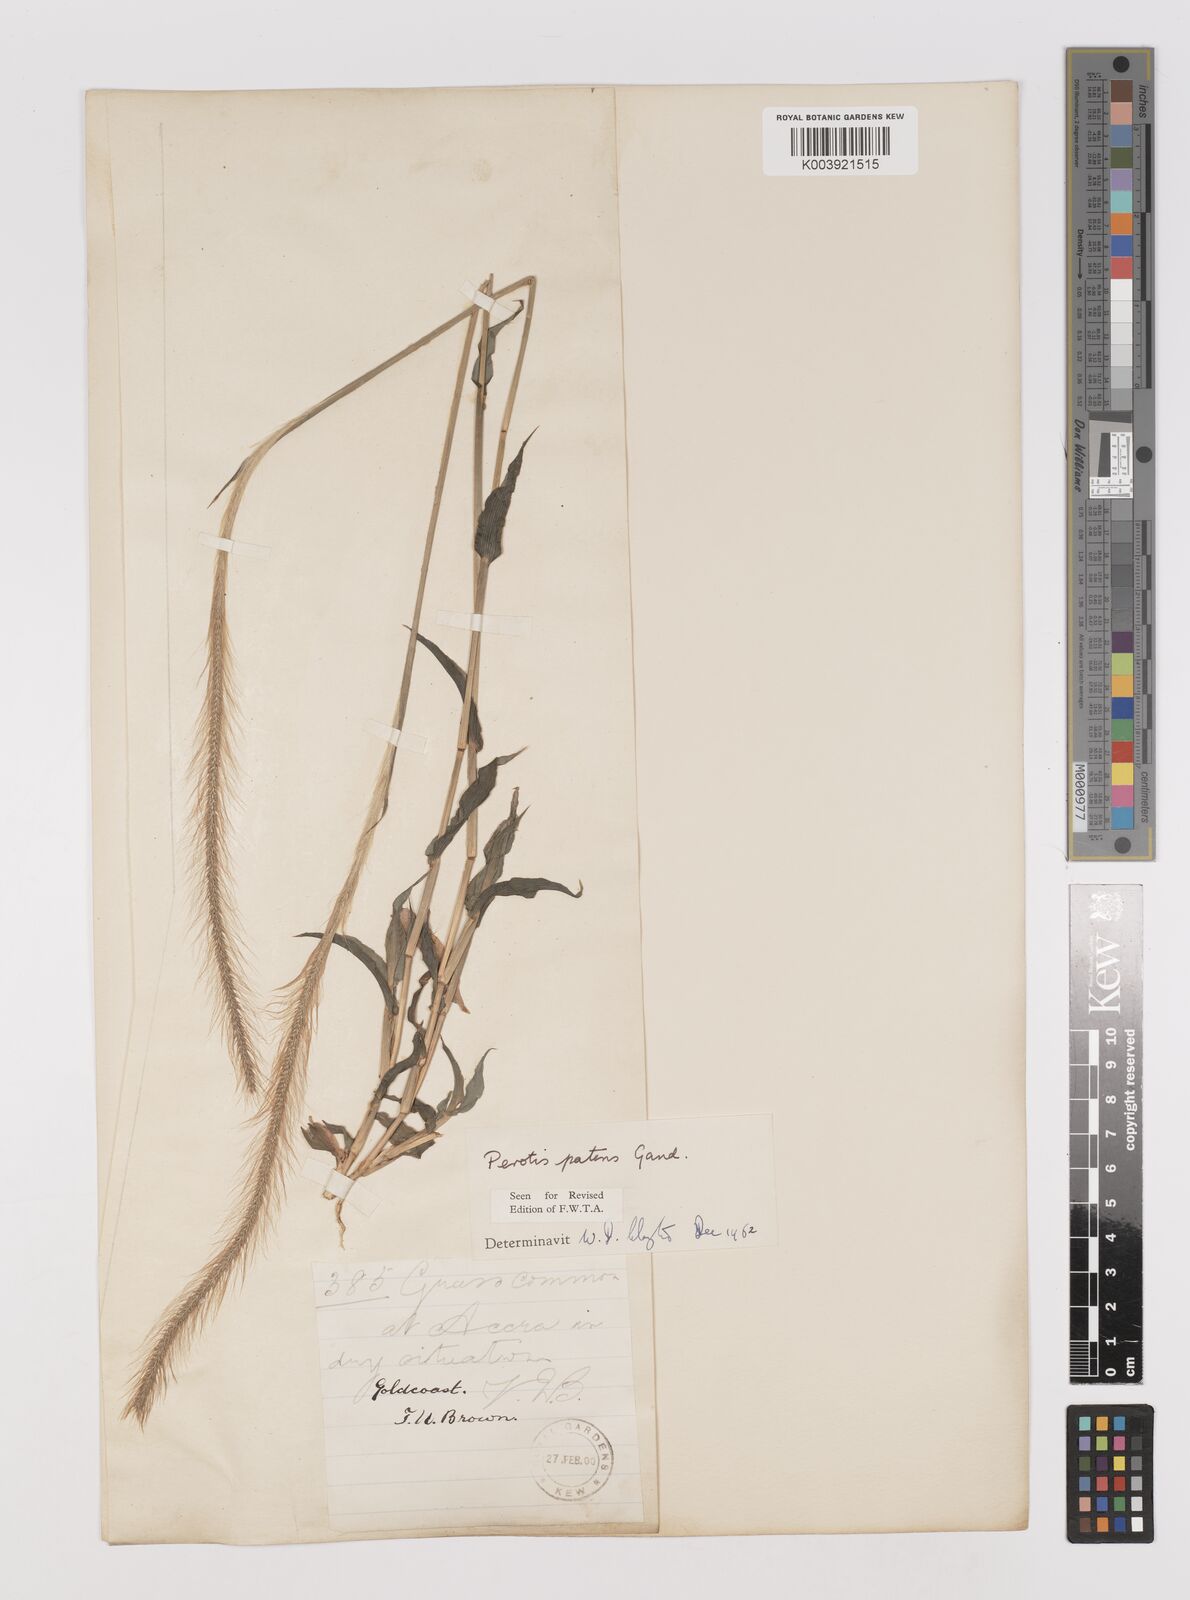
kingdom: Plantae
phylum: Tracheophyta
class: Liliopsida
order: Poales
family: Poaceae
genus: Perotis
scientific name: Perotis patens
